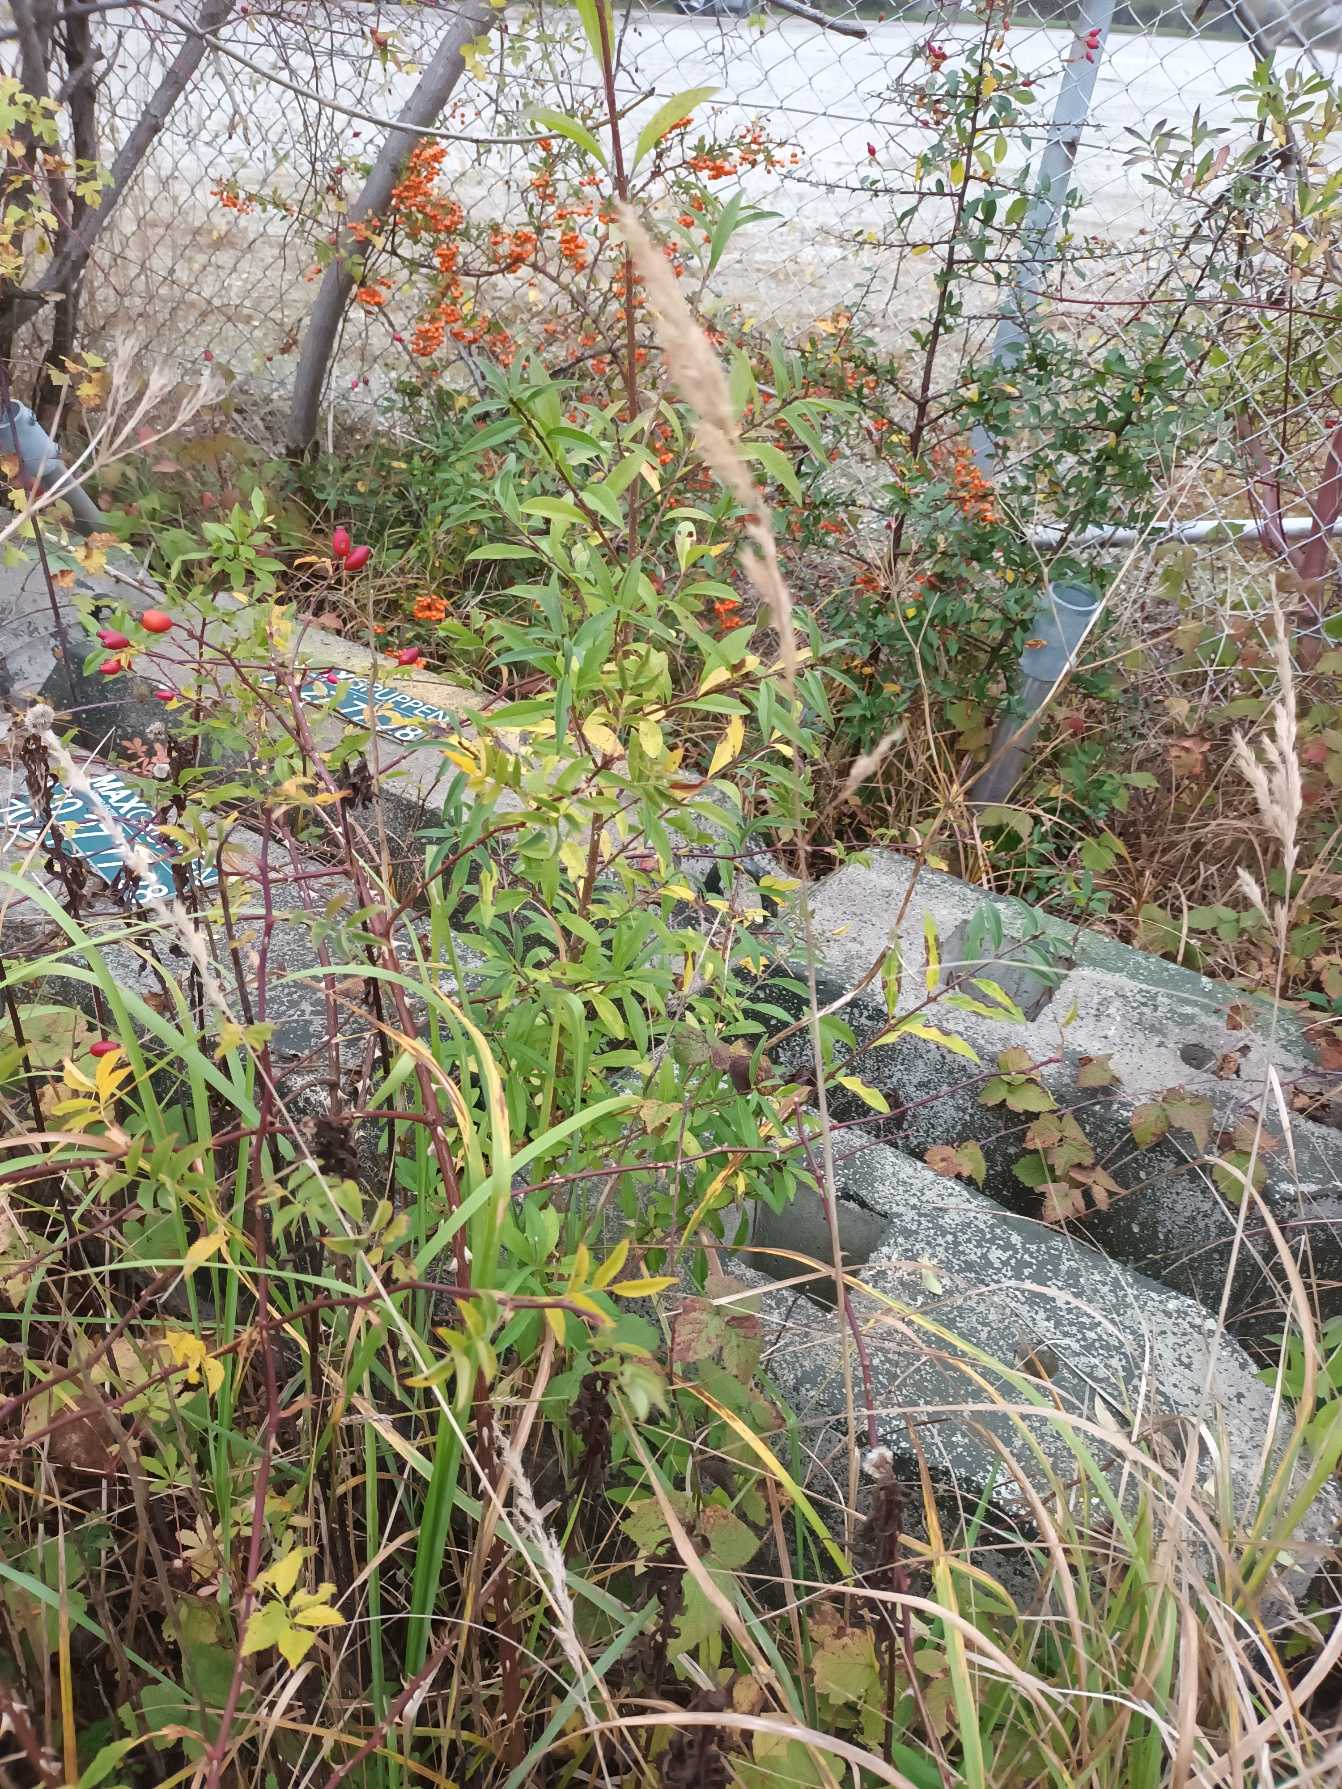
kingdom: Plantae
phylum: Tracheophyta
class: Magnoliopsida
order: Lamiales
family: Oleaceae
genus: Ligustrum
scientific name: Ligustrum vulgare
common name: Liguster
